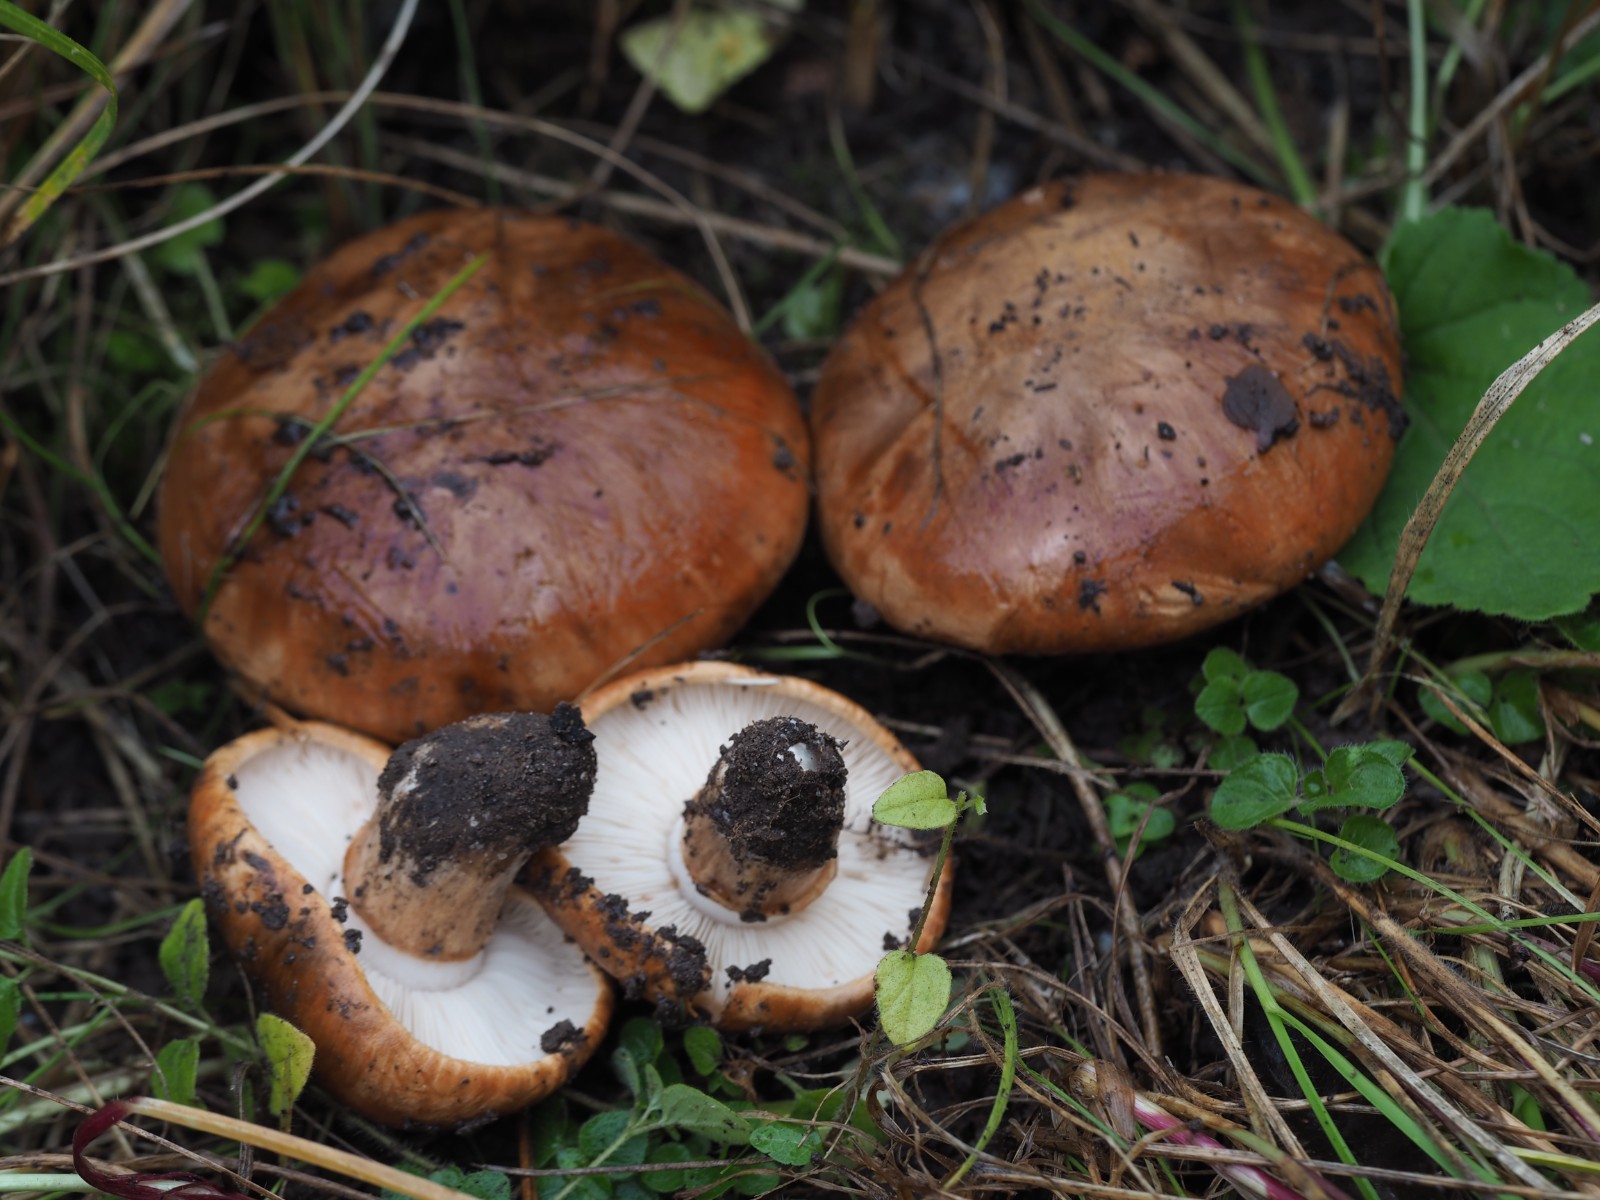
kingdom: Fungi
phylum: Basidiomycota
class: Agaricomycetes
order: Agaricales
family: Tricholomataceae
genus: Tricholoma
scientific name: Tricholoma fracticum
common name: hvidhalset ridderhat
